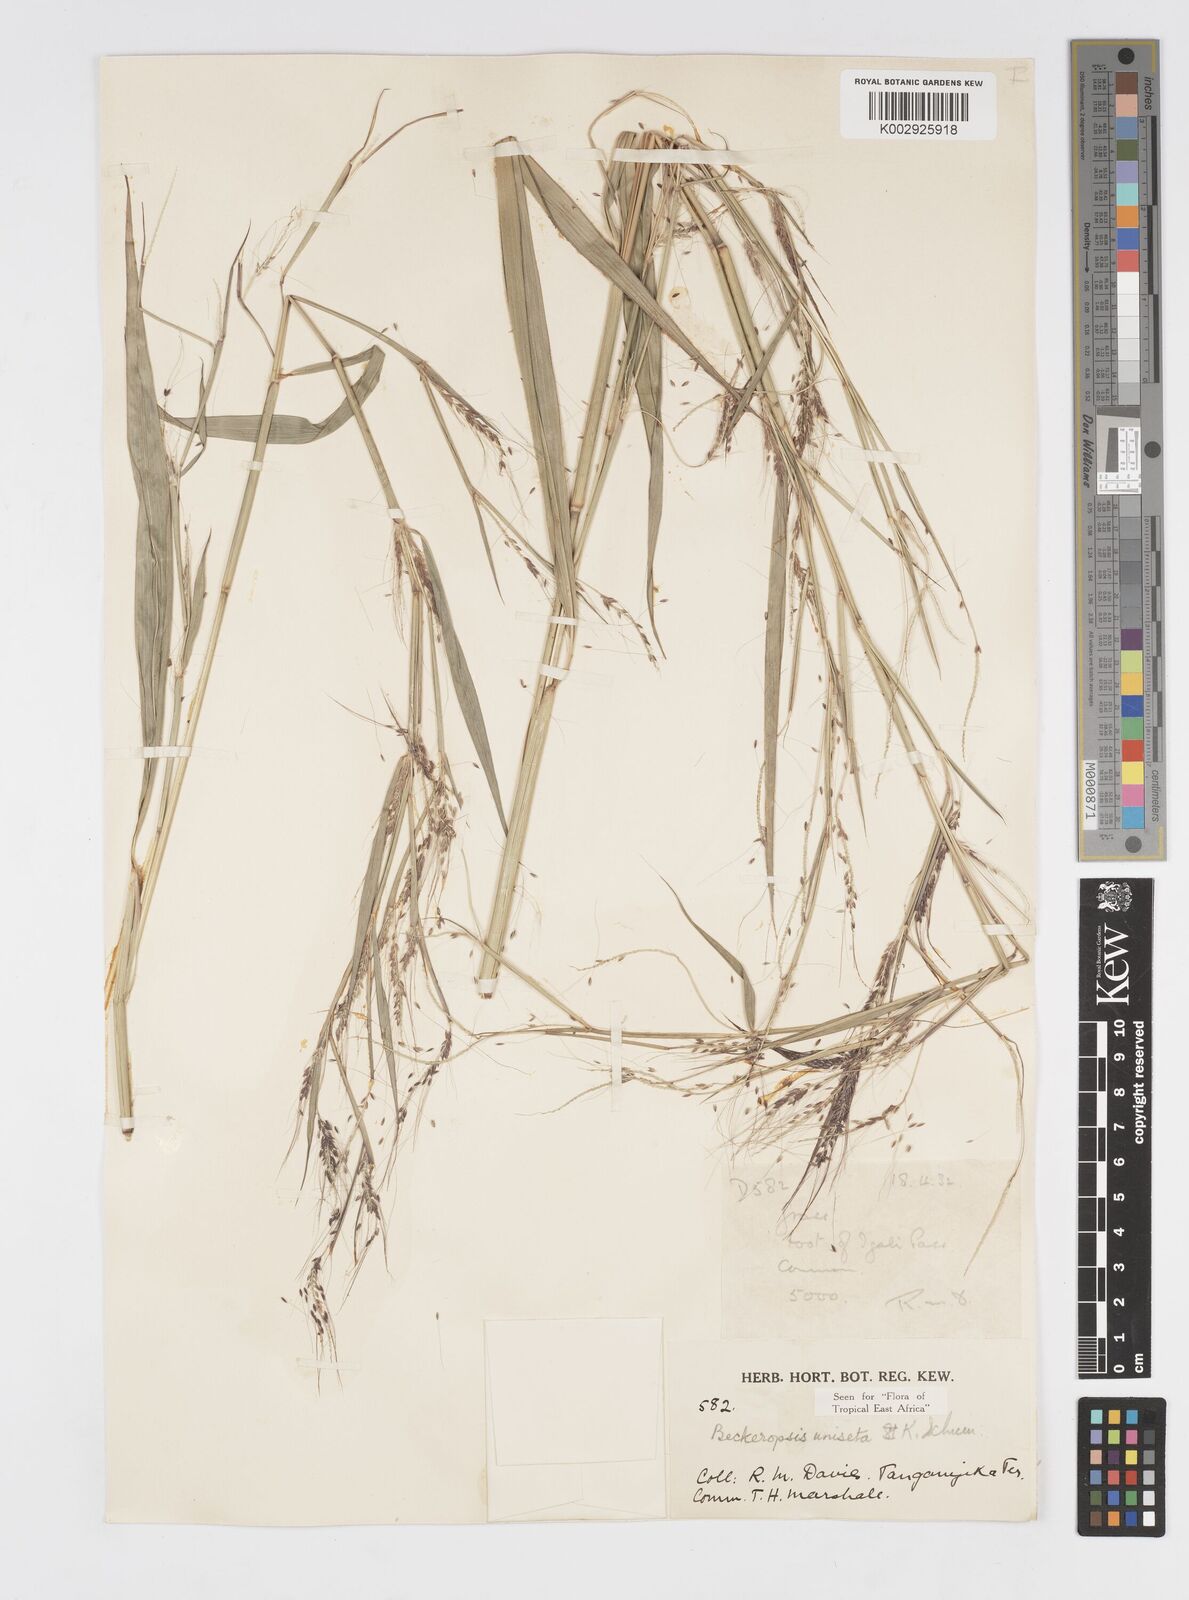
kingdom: Plantae
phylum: Tracheophyta
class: Liliopsida
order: Poales
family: Poaceae
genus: Cenchrus
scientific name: Cenchrus unisetus
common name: Natal grass
